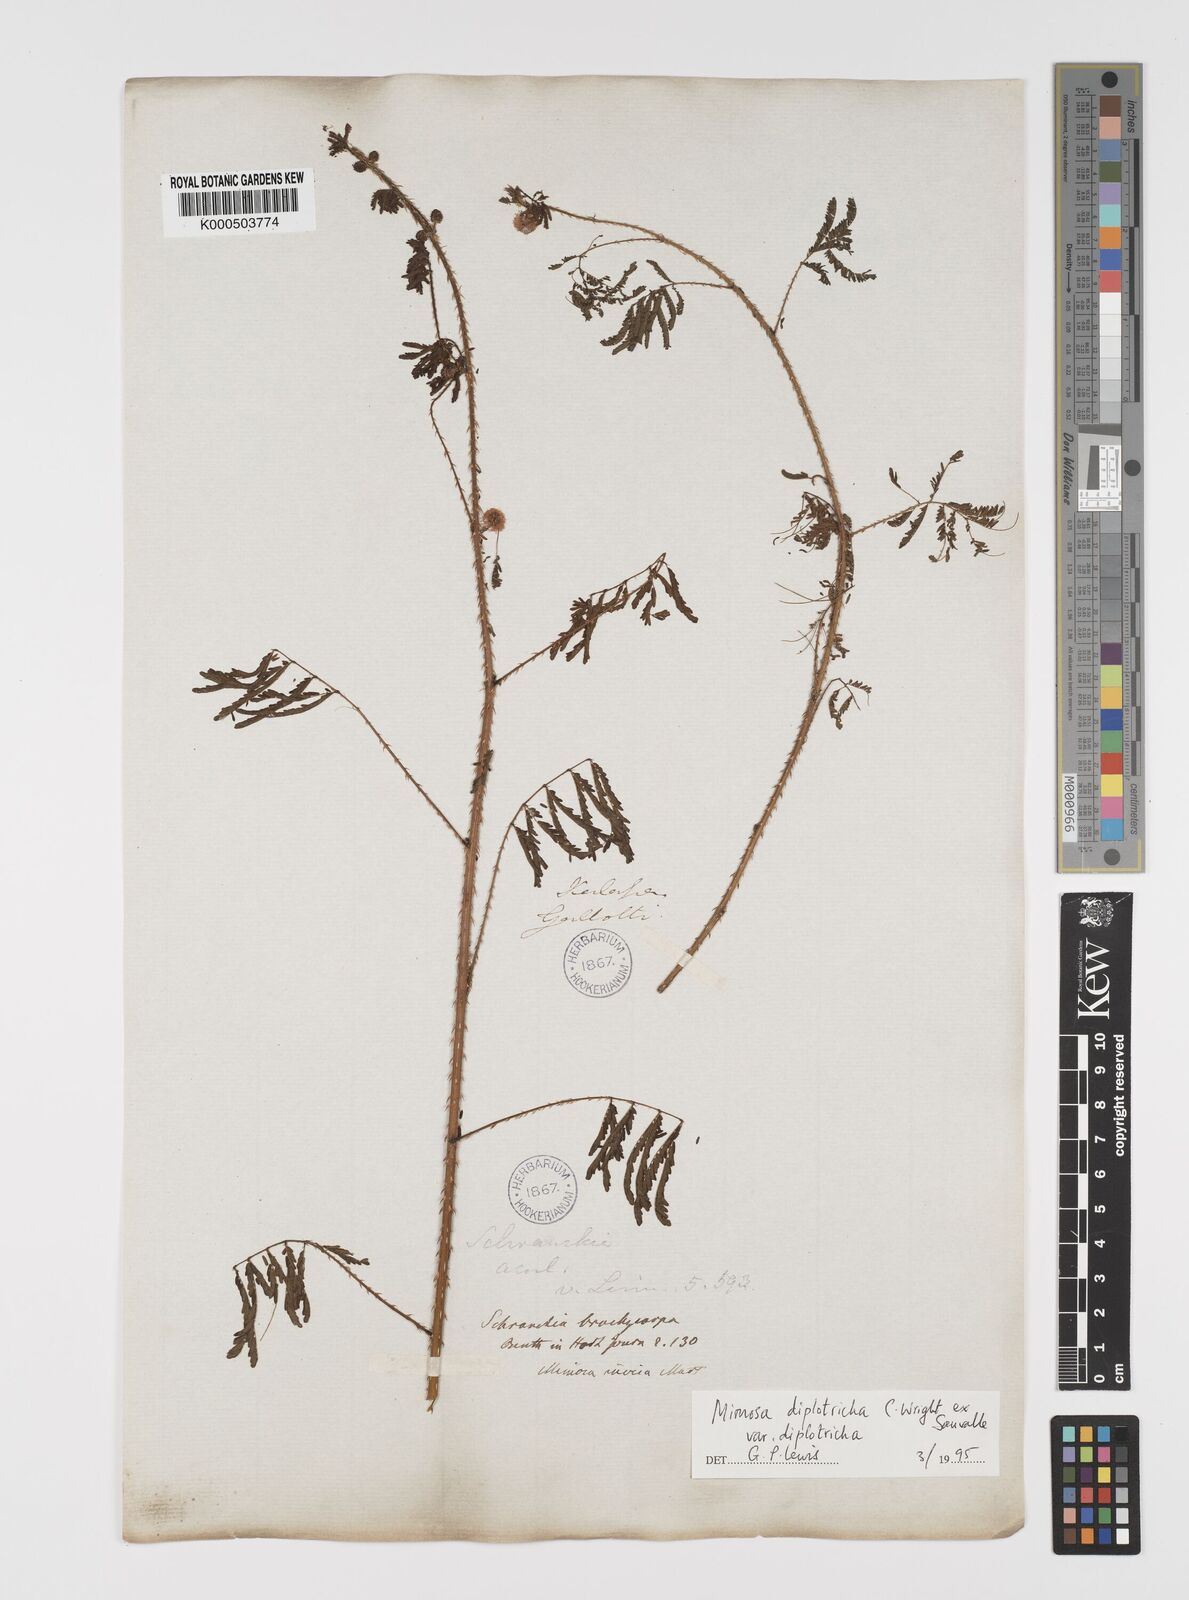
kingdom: Plantae
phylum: Tracheophyta
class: Magnoliopsida
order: Fabales
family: Fabaceae
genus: Mimosa
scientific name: Mimosa diplotricha
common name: Giant sensitive-plant
